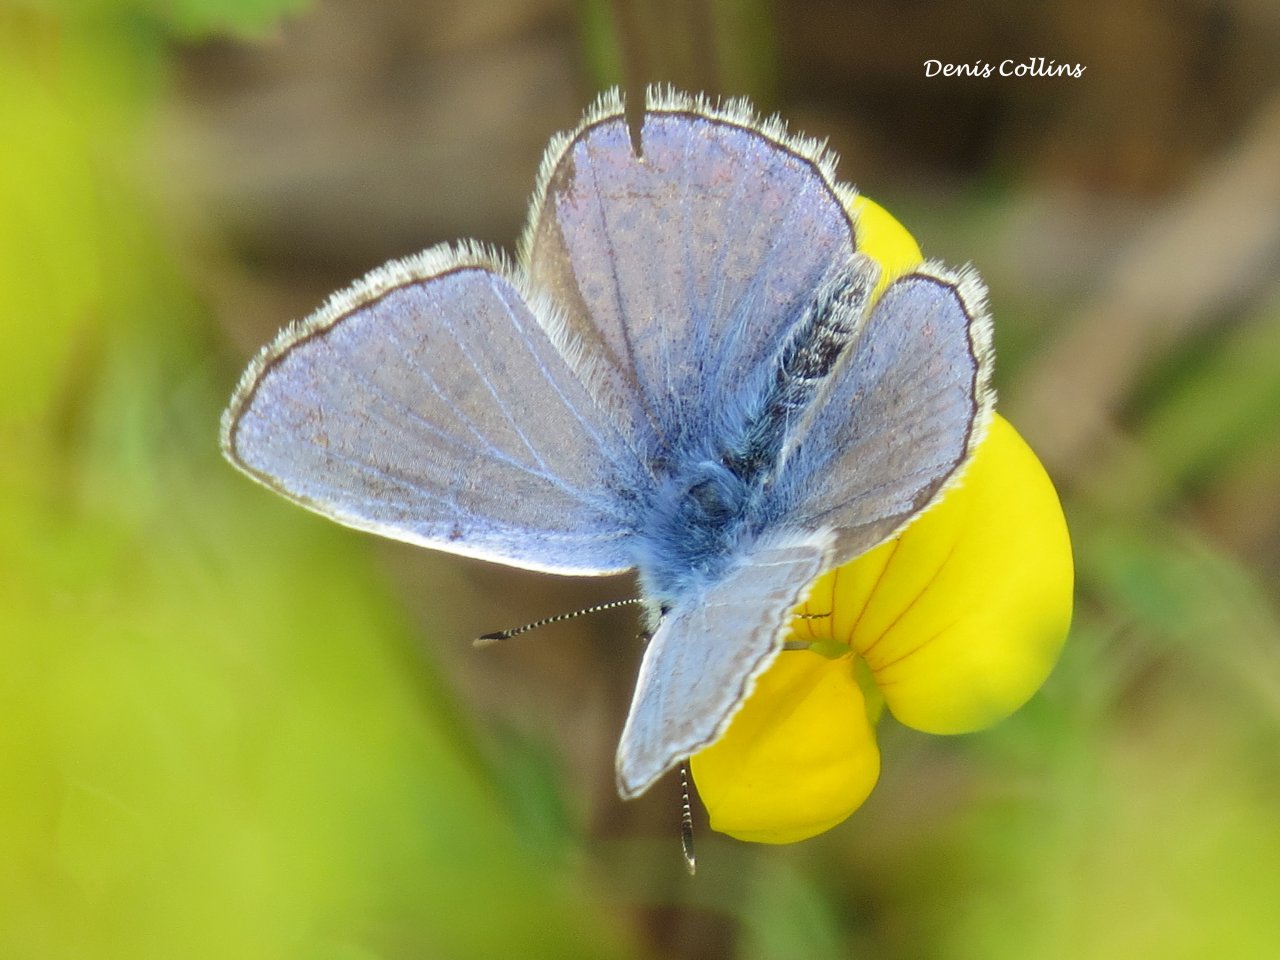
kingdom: Animalia
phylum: Arthropoda
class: Insecta
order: Lepidoptera
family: Lycaenidae
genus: Polyommatus
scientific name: Polyommatus icarus
